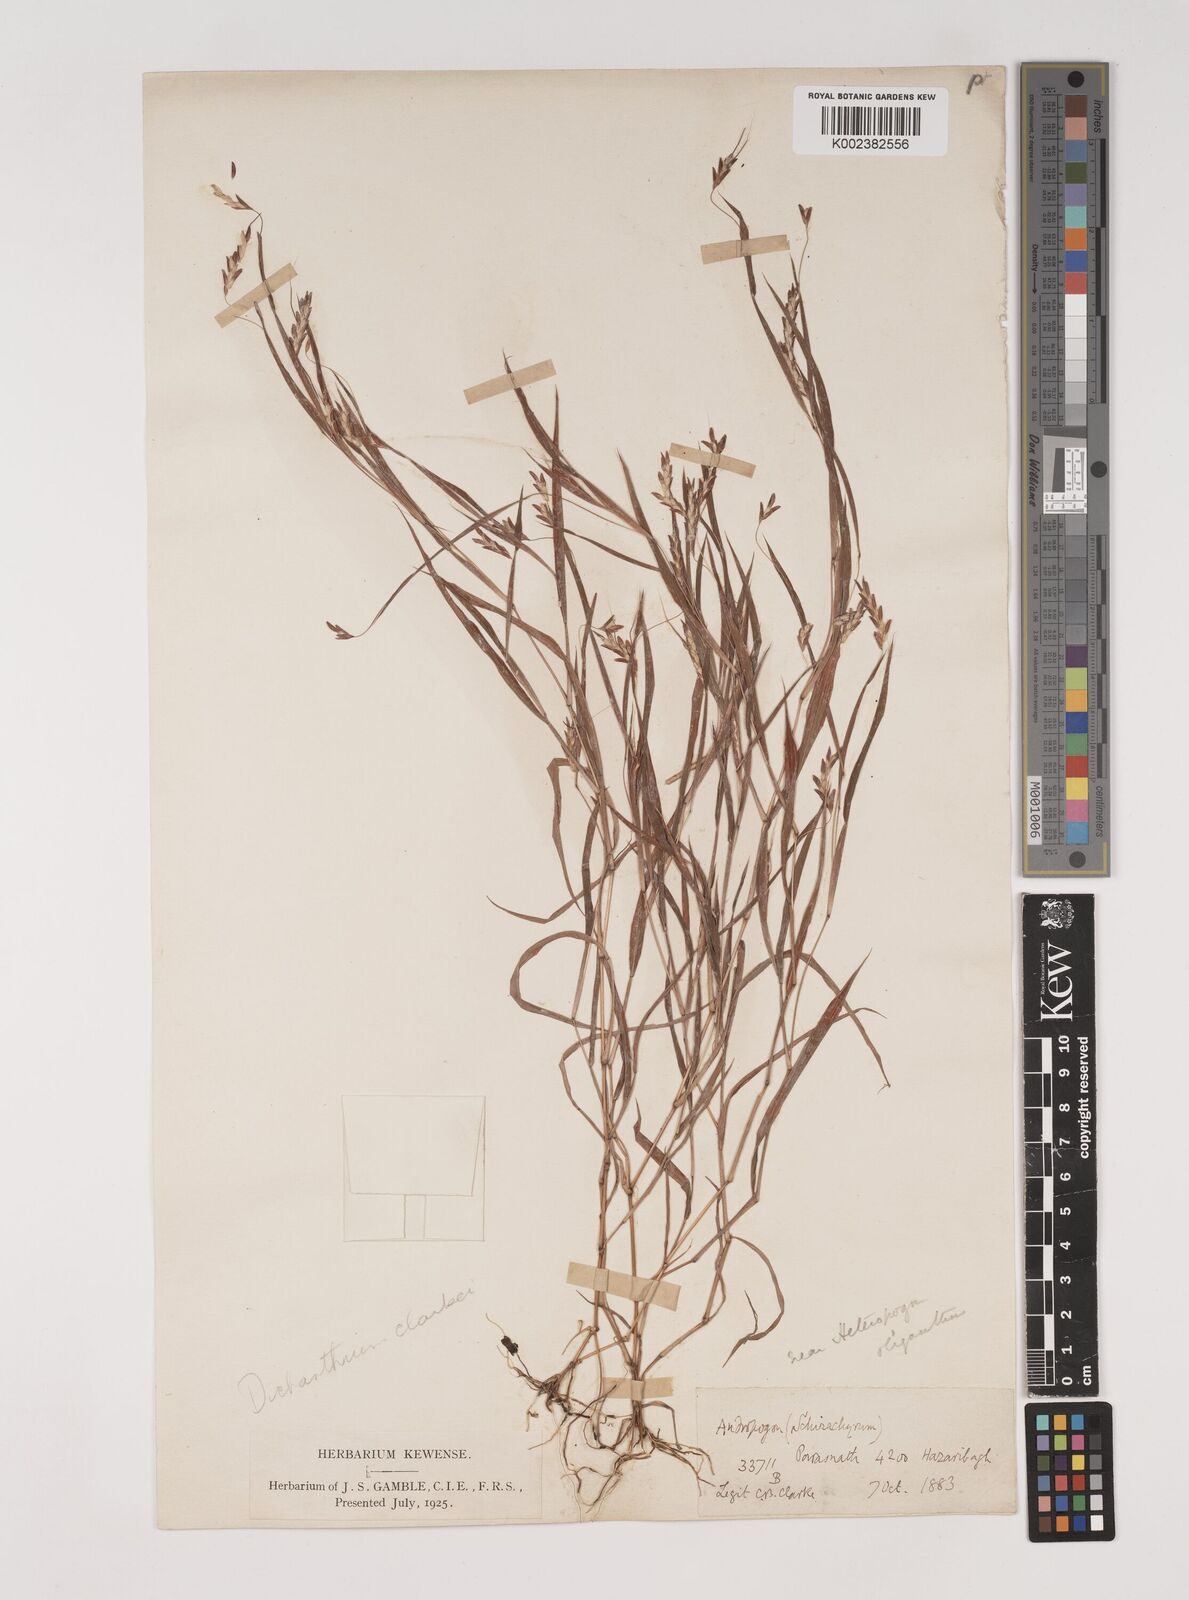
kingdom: Plantae
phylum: Tracheophyta
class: Liliopsida
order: Poales
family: Poaceae
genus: Euclasta
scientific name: Euclasta clarkei
